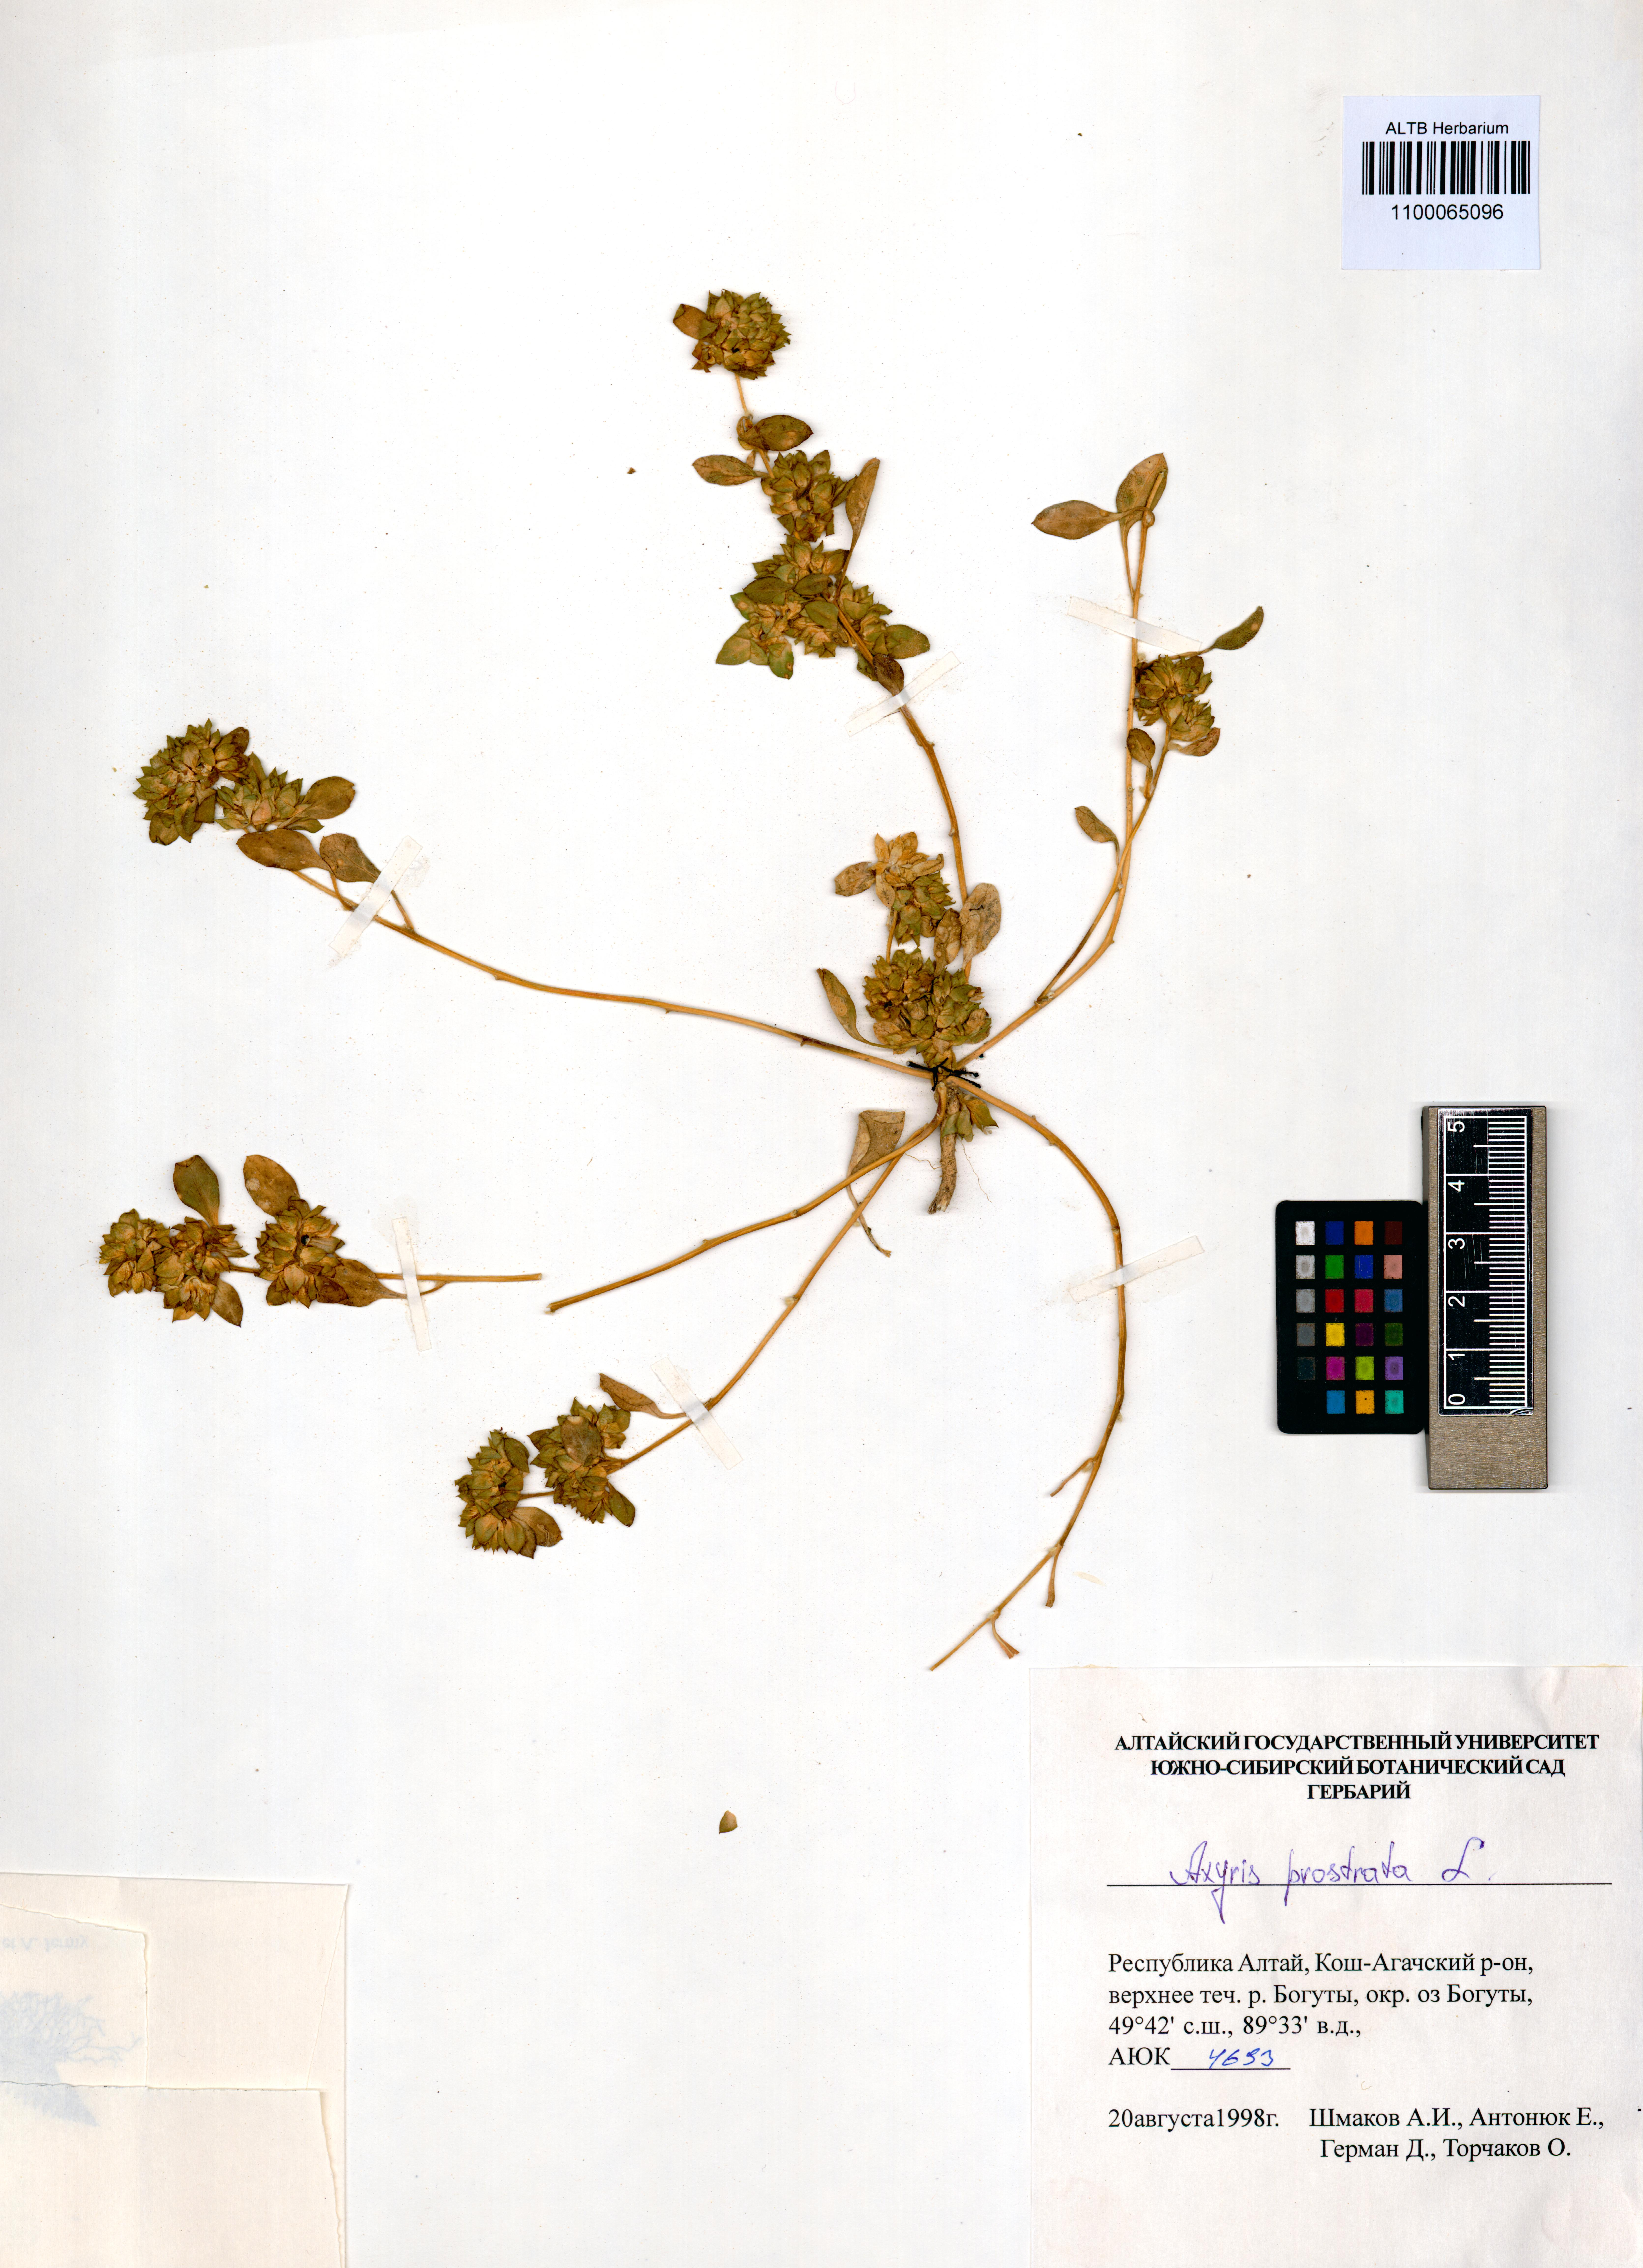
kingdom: Plantae
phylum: Tracheophyta
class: Magnoliopsida
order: Caryophyllales
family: Amaranthaceae
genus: Axyris
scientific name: Axyris prostrata
